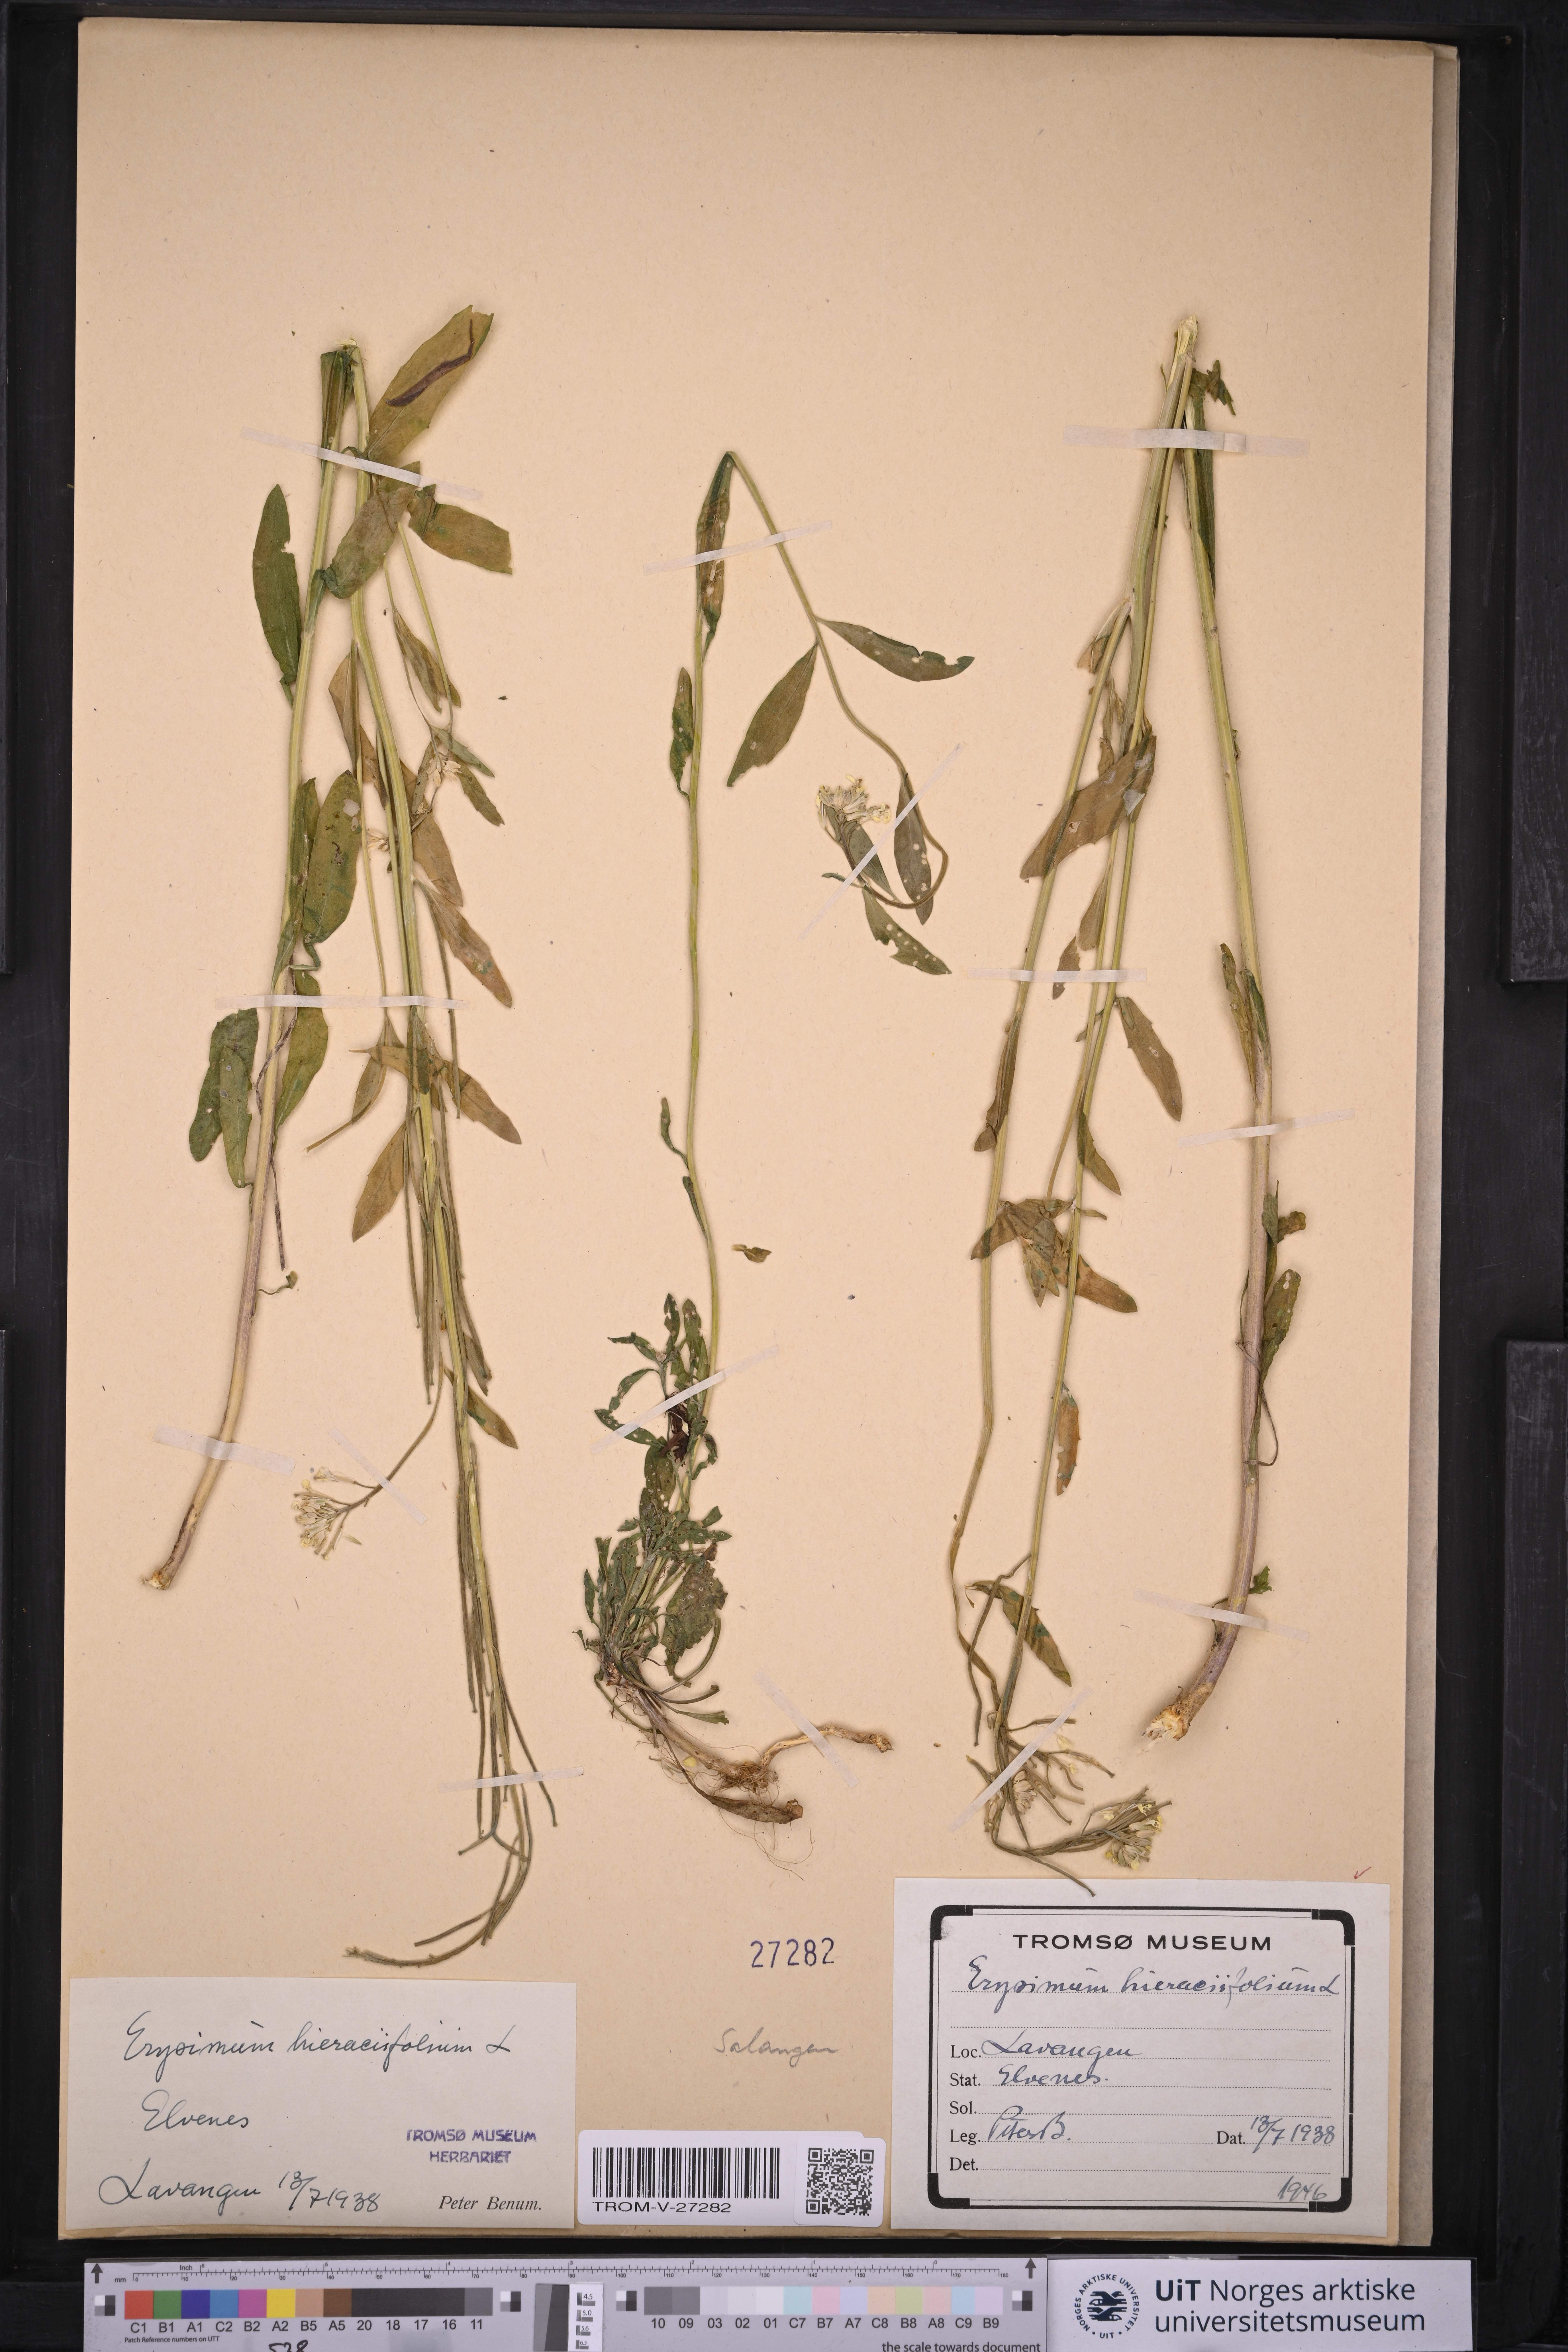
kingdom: Plantae
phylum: Tracheophyta
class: Magnoliopsida
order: Brassicales
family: Brassicaceae
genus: Erysimum
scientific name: Erysimum virgatum
